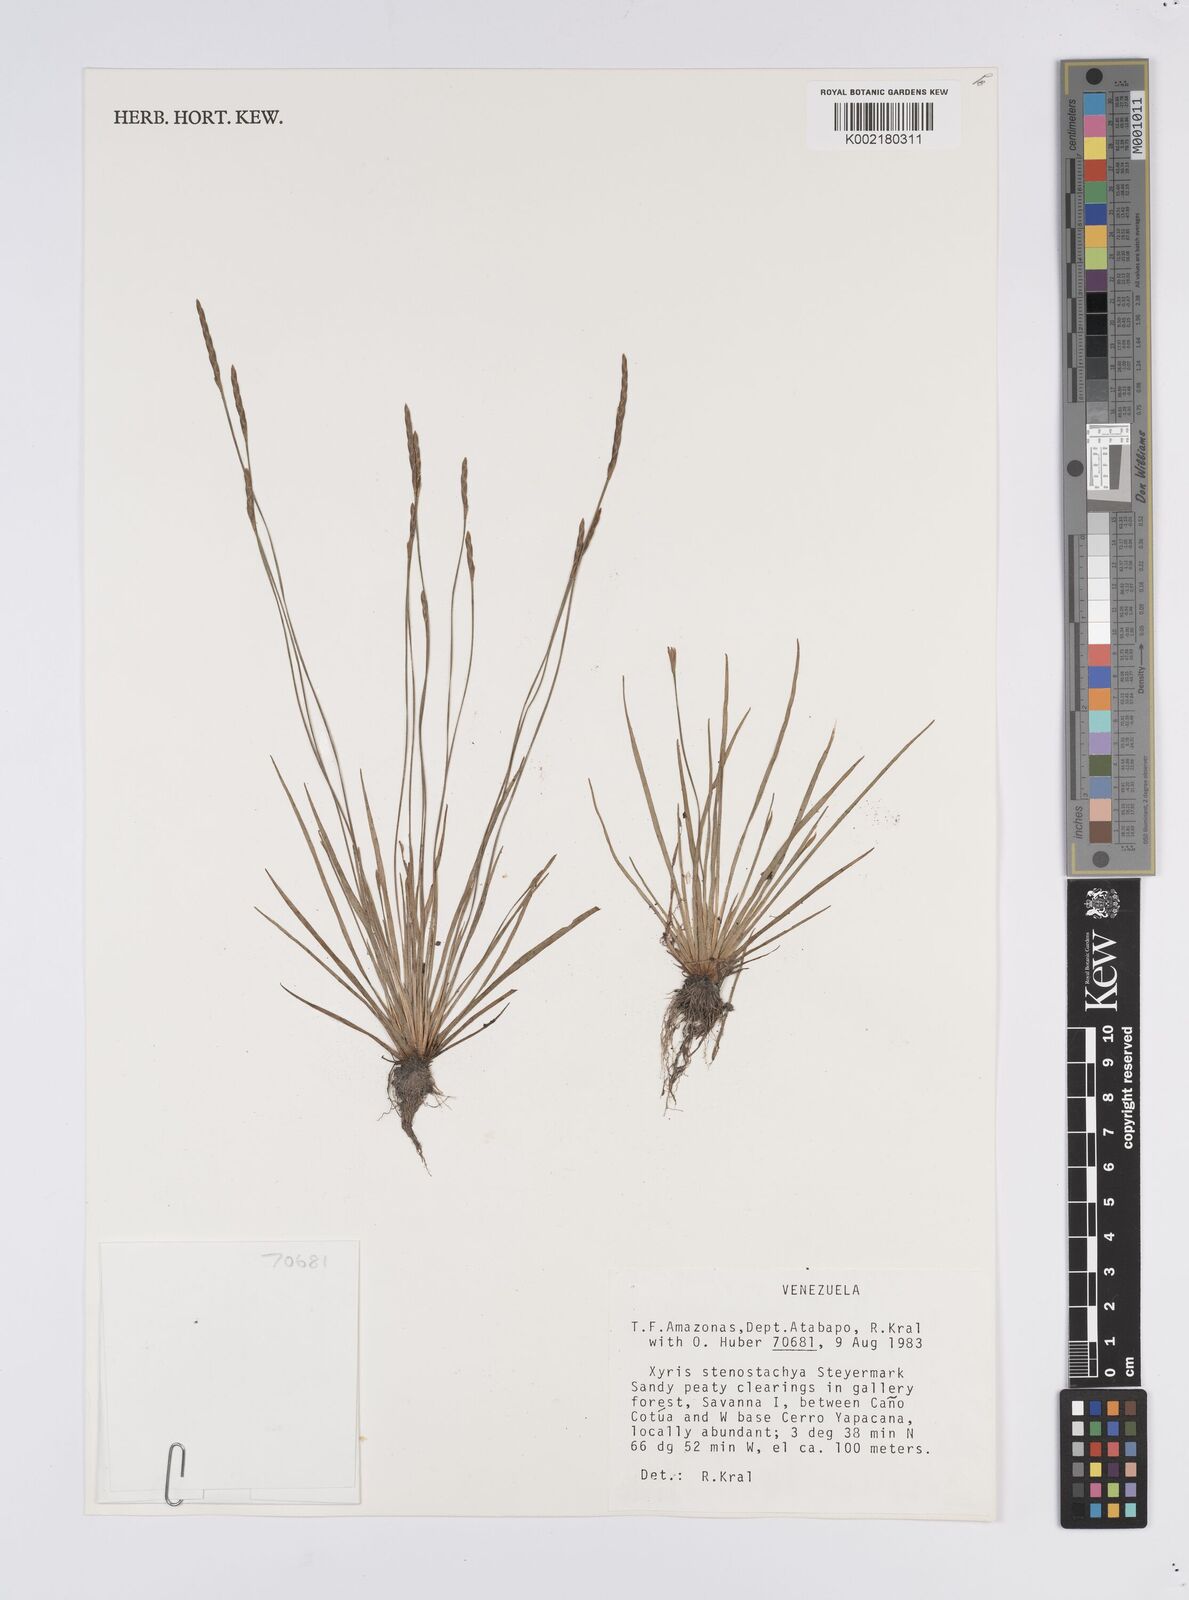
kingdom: Plantae
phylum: Tracheophyta
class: Liliopsida
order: Poales
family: Xyridaceae
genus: Xyris
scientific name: Xyris stenostachya
